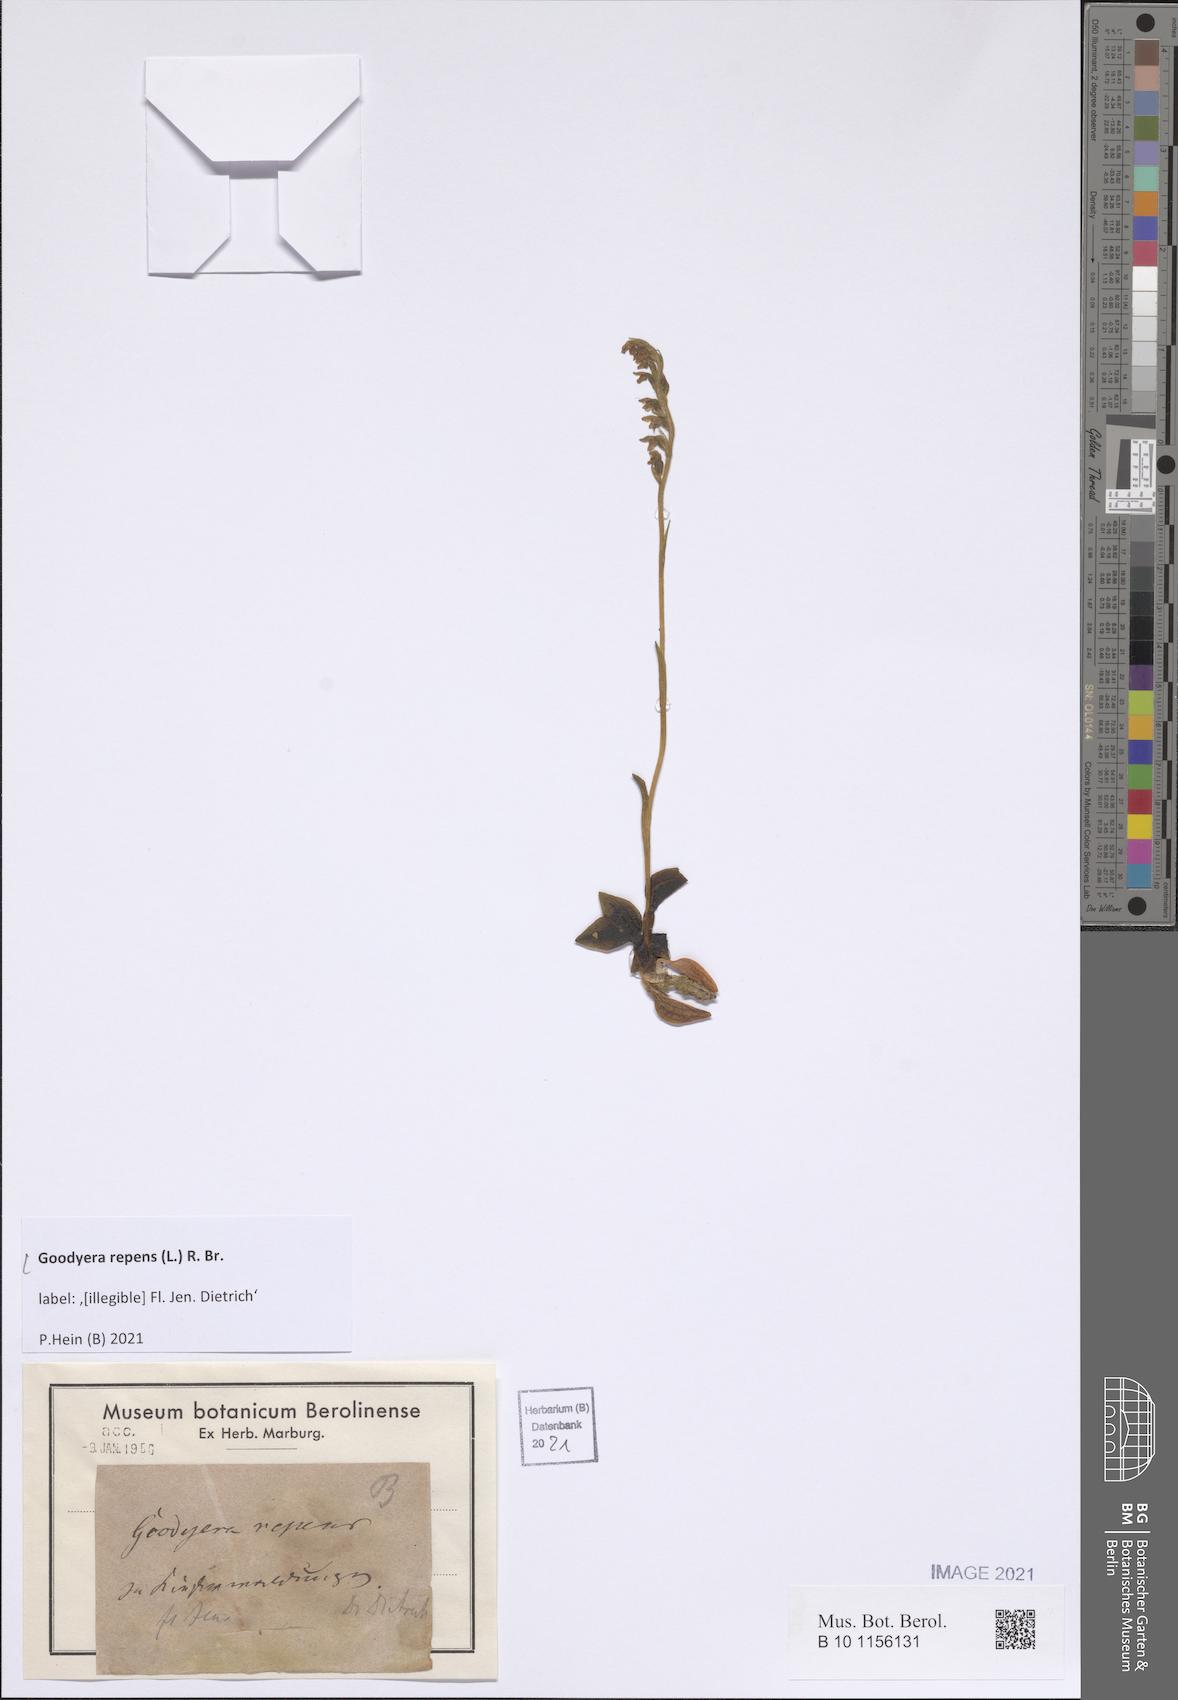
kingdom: Plantae
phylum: Tracheophyta
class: Liliopsida
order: Asparagales
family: Orchidaceae
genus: Goodyera
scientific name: Goodyera repens
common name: Creeping lady's-tresses
